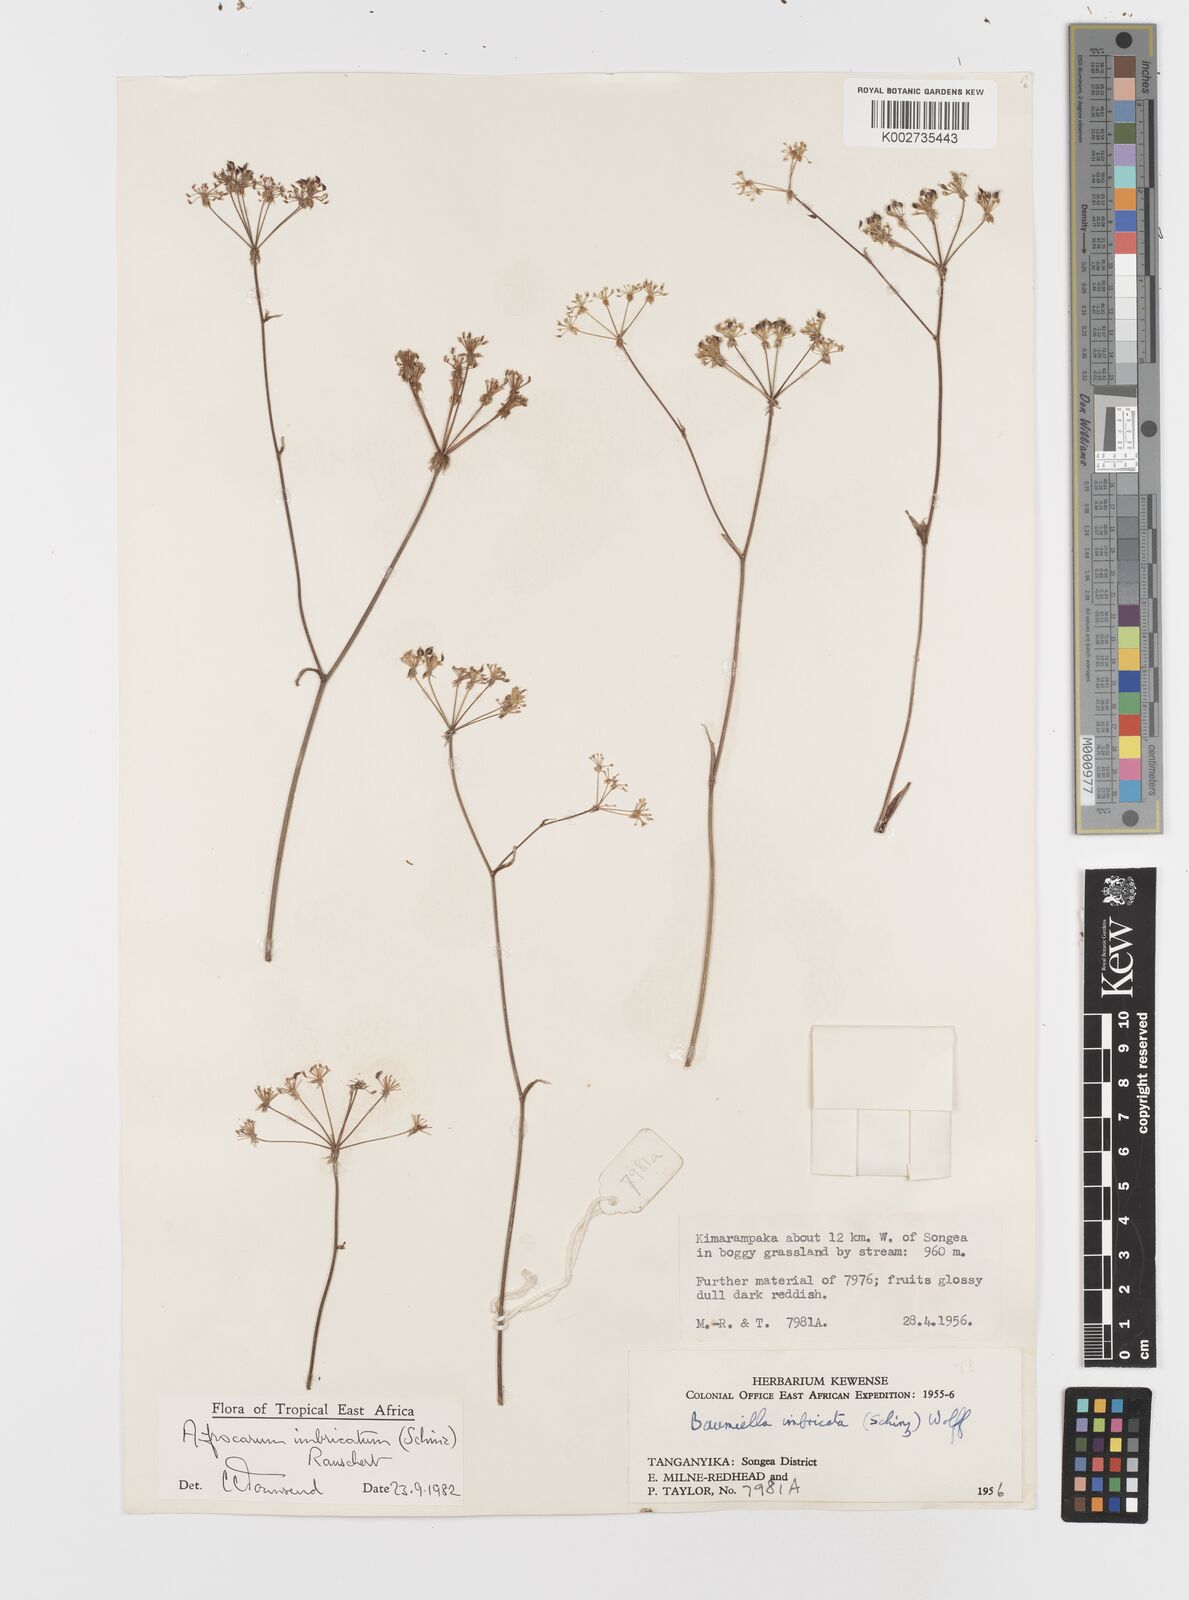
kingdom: Plantae
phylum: Tracheophyta
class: Magnoliopsida
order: Apiales
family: Apiaceae
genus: Berula
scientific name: Berula imbricata
